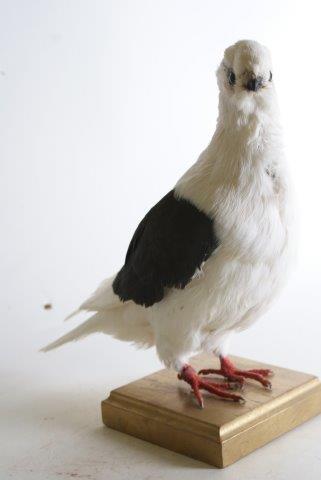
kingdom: Animalia
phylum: Chordata
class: Aves
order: Columbiformes
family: Columbidae
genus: Columba
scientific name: Columba livia
